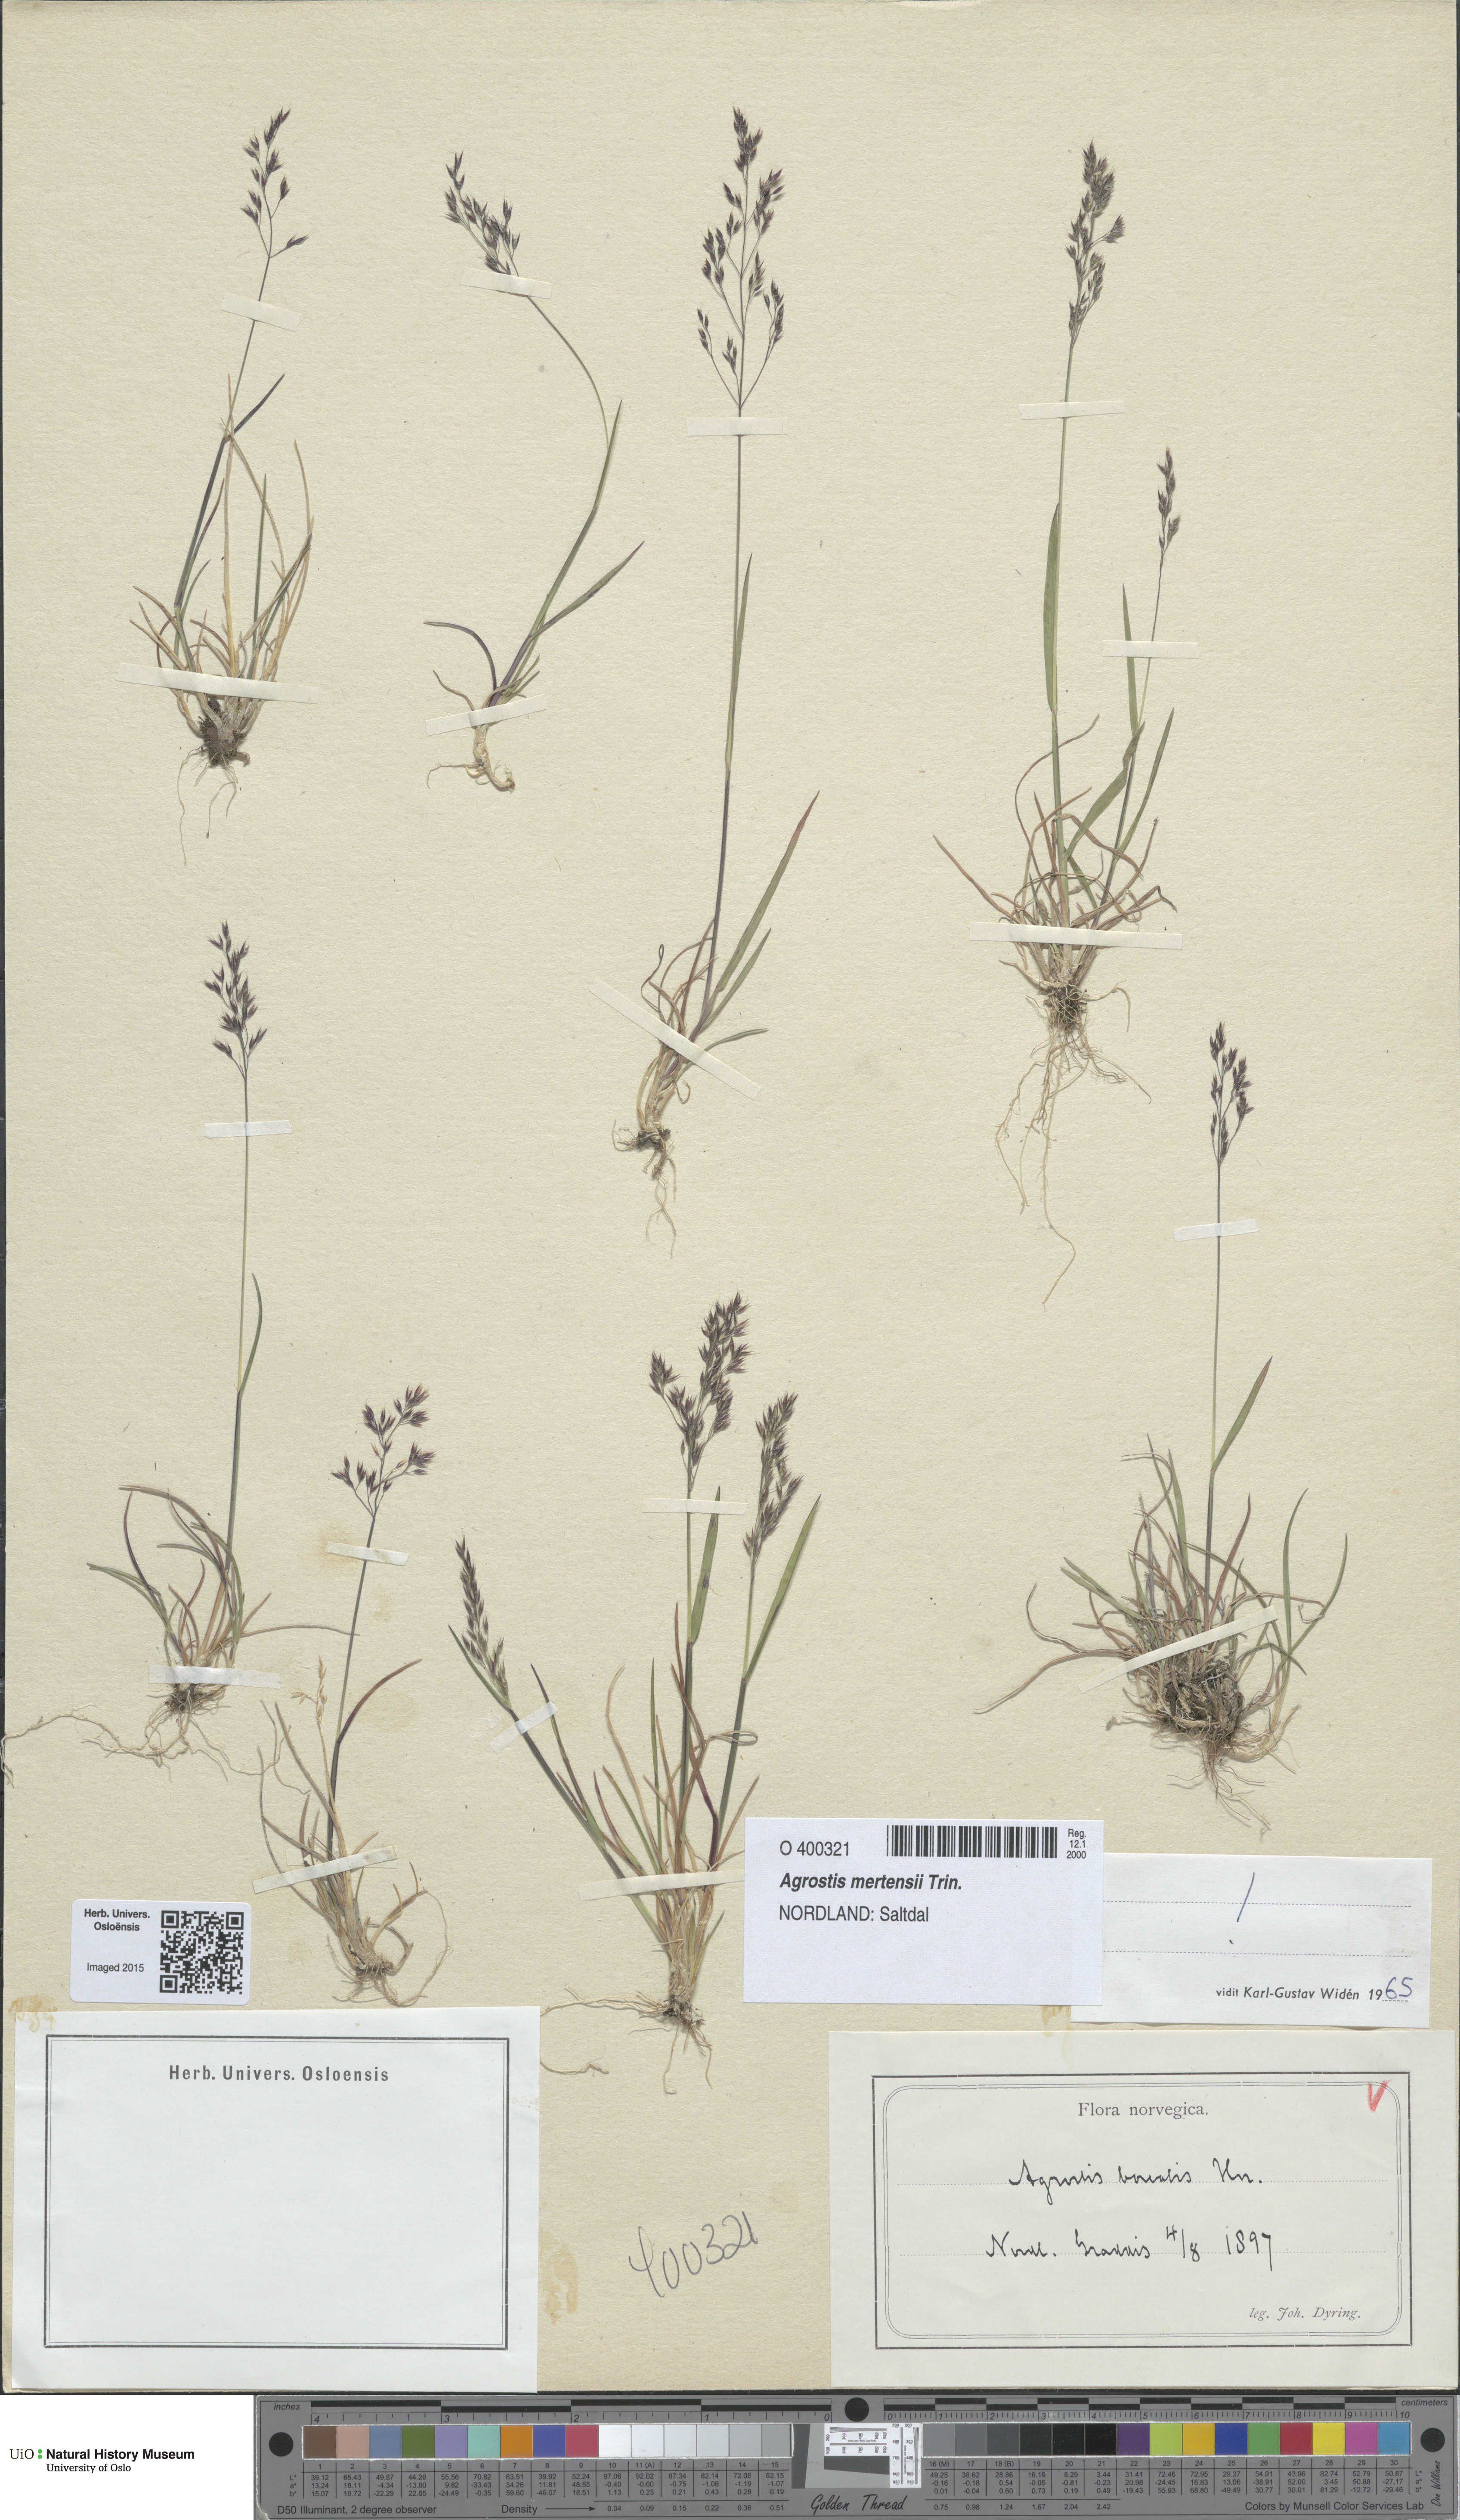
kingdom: Plantae
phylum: Tracheophyta
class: Liliopsida
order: Poales
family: Poaceae
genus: Agrostis
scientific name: Agrostis mertensii
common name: Northern bent
